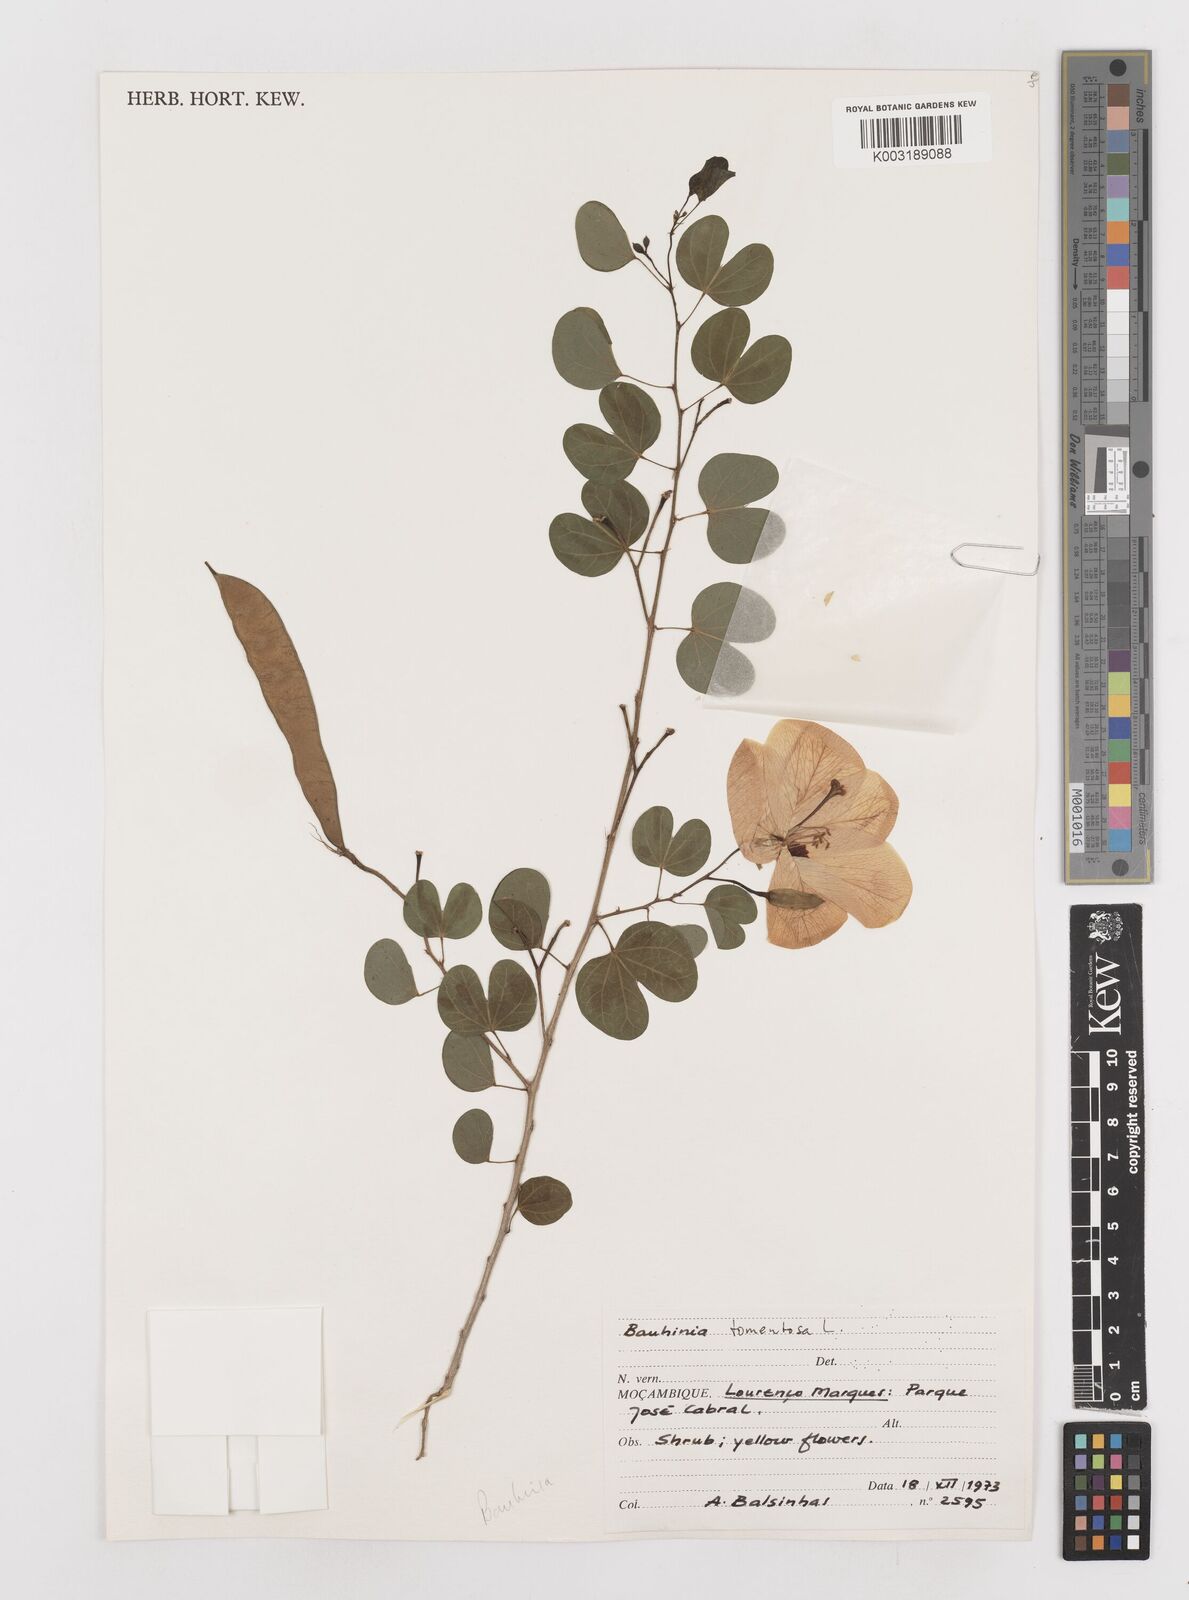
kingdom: Plantae
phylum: Tracheophyta
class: Magnoliopsida
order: Fabales
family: Fabaceae
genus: Bauhinia
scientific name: Bauhinia tomentosa
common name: Bell bauhinia
